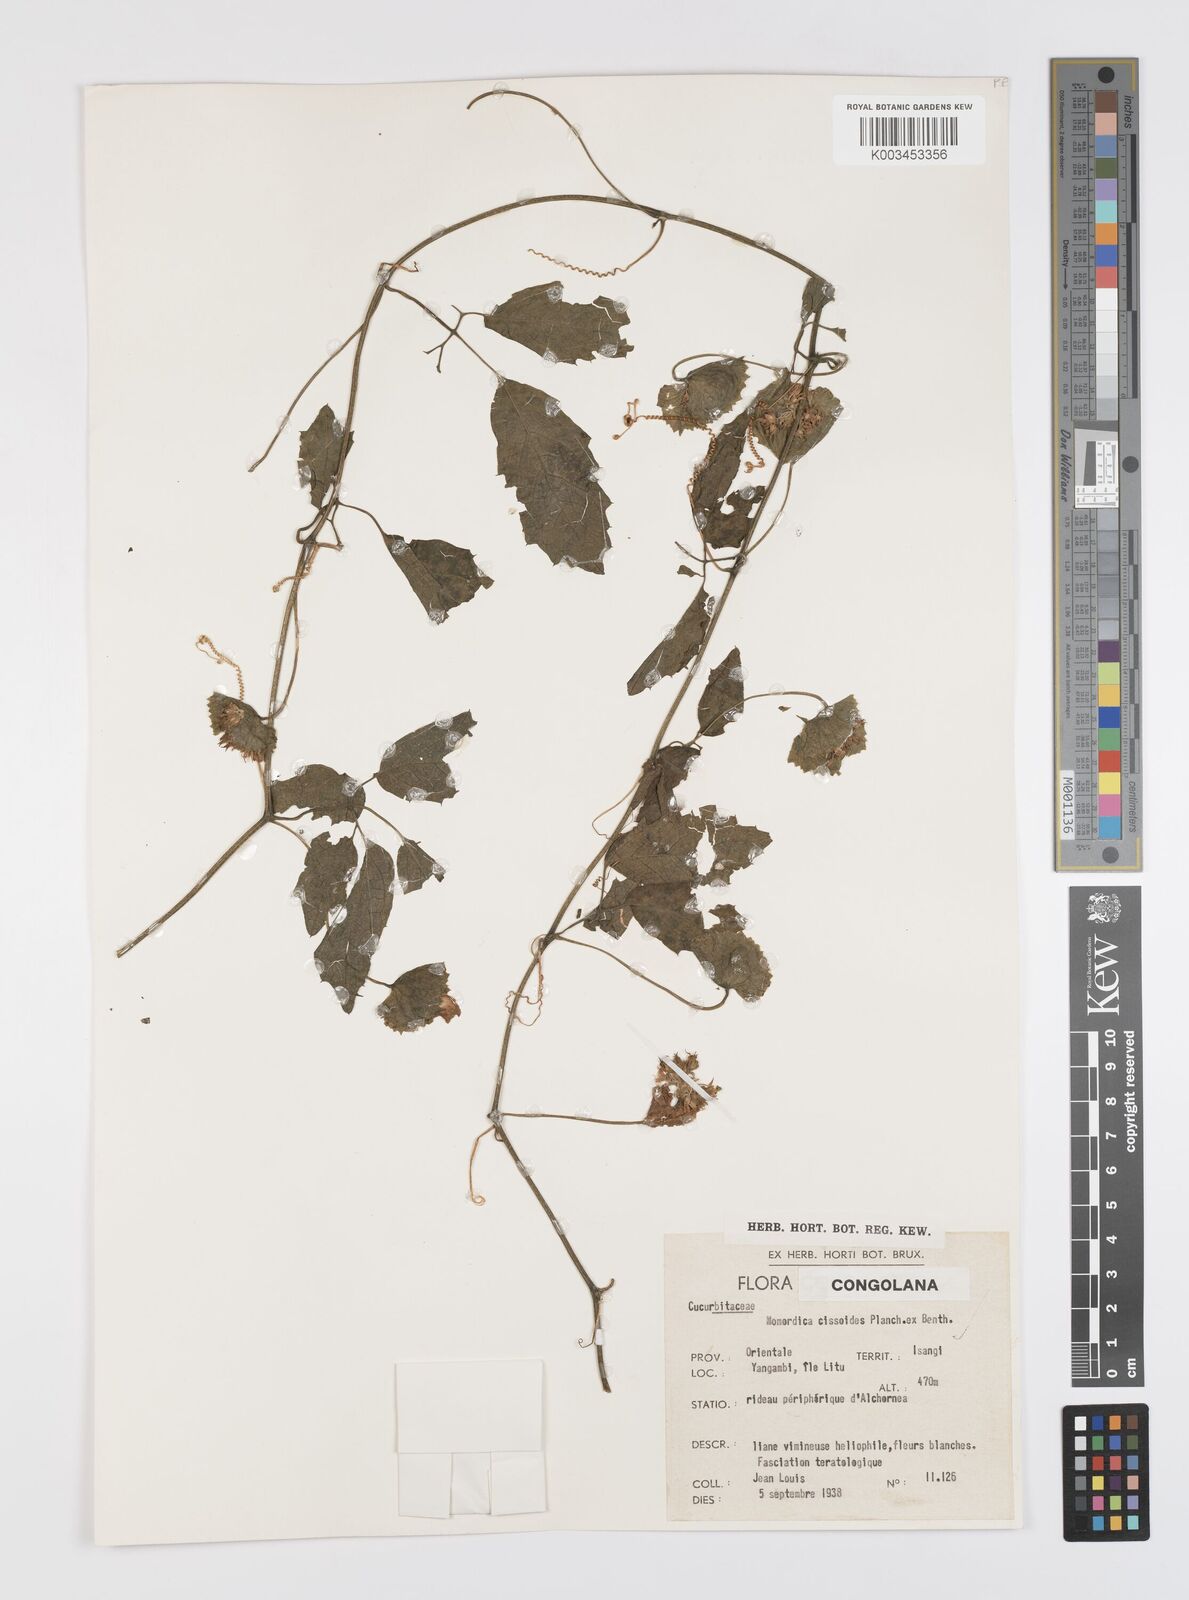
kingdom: Plantae
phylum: Tracheophyta
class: Magnoliopsida
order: Cucurbitales
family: Cucurbitaceae
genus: Momordica
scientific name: Momordica cissoides
